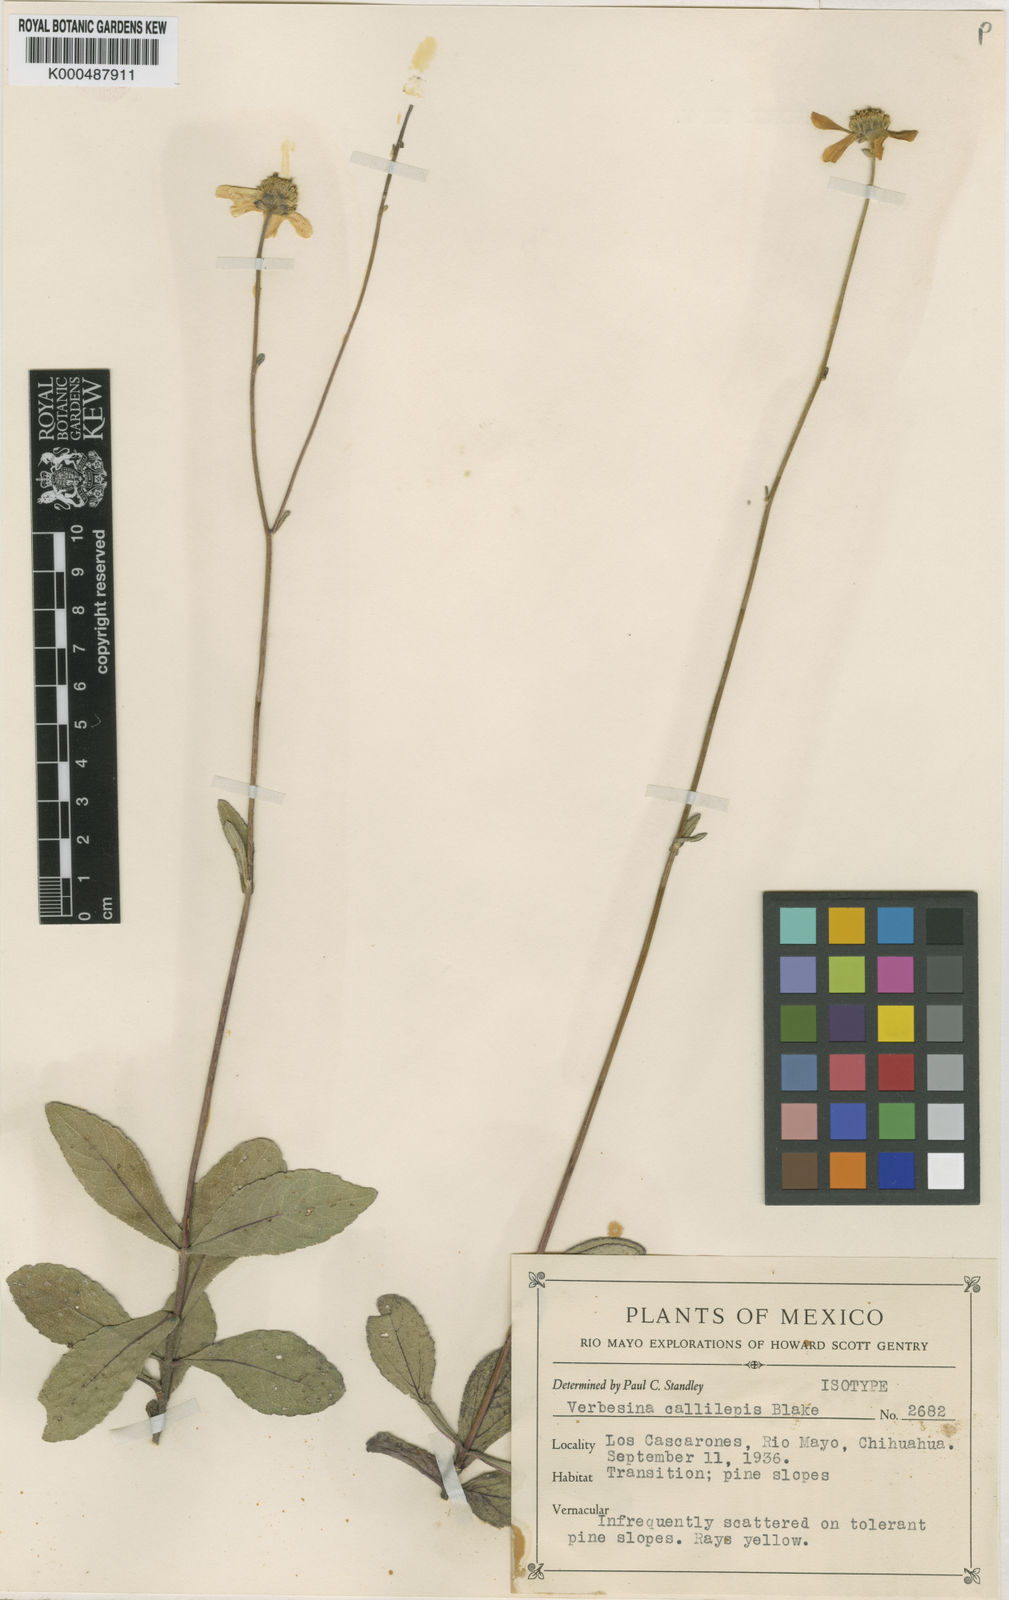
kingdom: Plantae
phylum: Tracheophyta
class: Magnoliopsida
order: Asterales
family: Asteraceae
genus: Verbesina
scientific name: Verbesina callilepis
